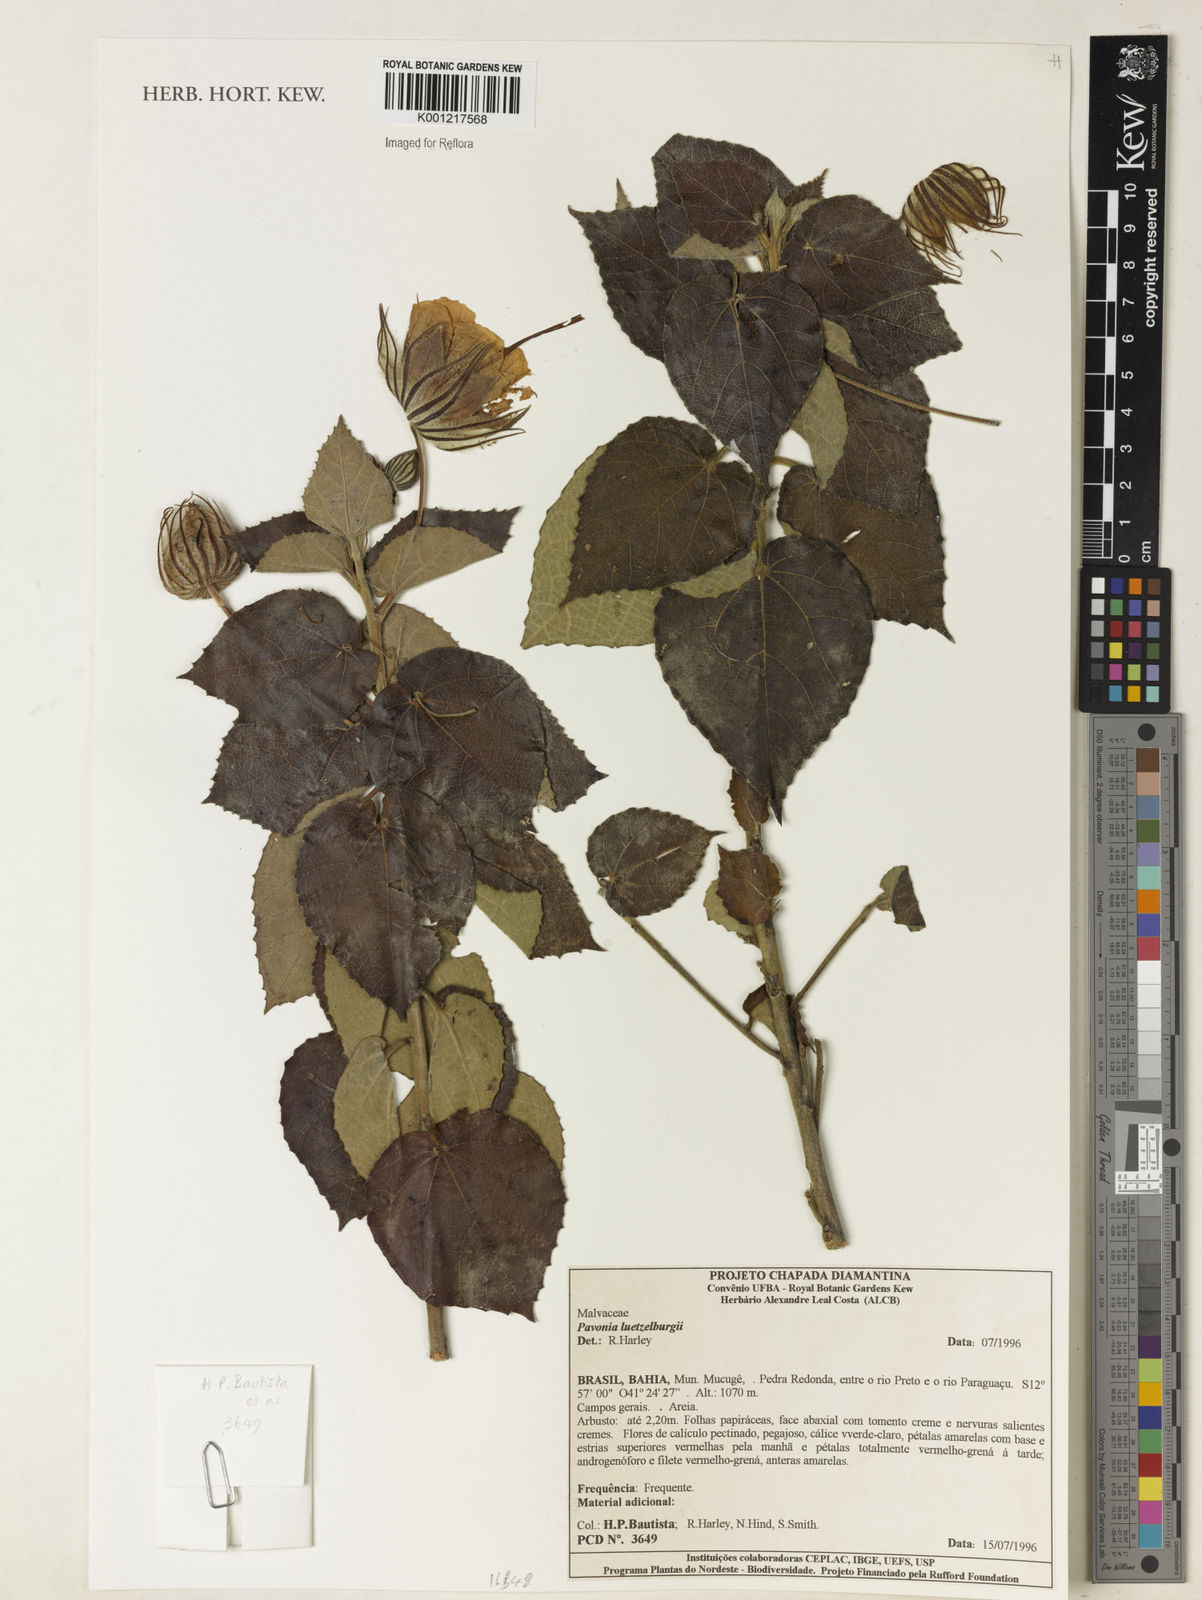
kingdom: Plantae
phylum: Tracheophyta
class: Magnoliopsida
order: Malvales
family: Malvaceae
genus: Pavonia
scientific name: Pavonia luetzelburgii
